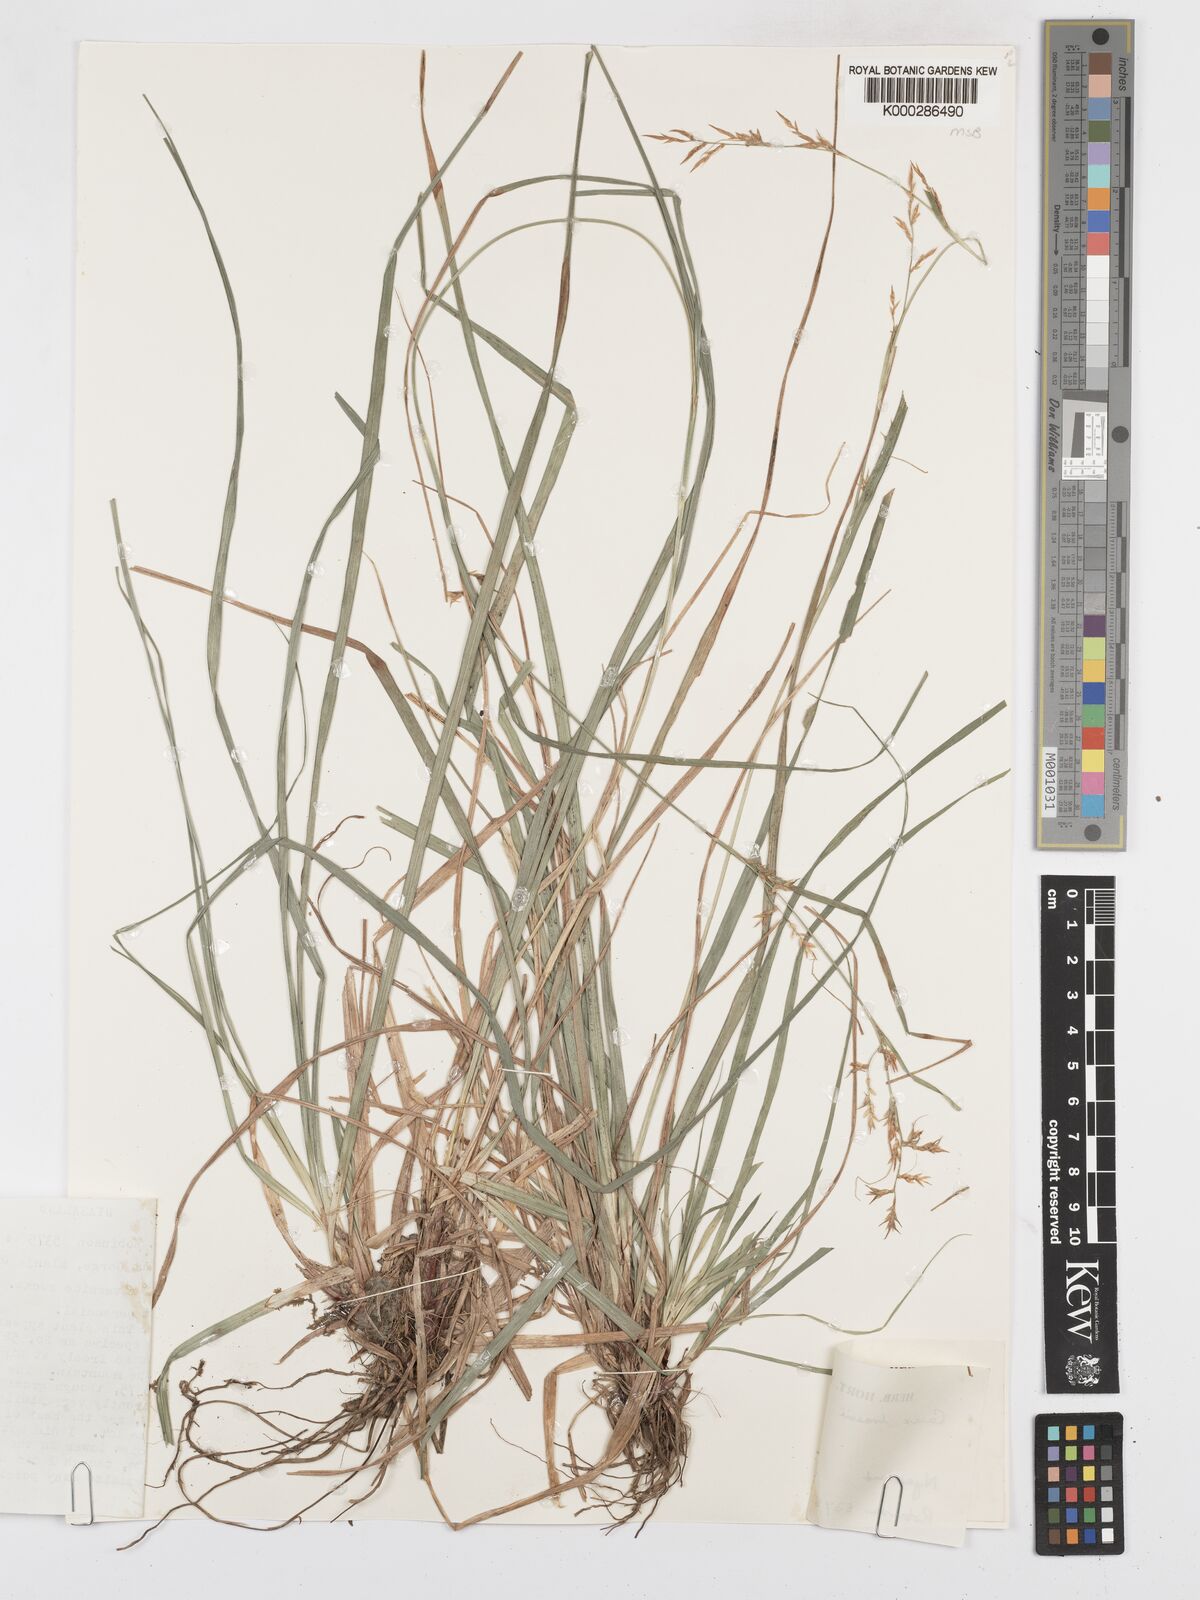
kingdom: Plantae
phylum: Tracheophyta
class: Liliopsida
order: Poales
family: Cyperaceae
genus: Carex
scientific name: Carex chlorosaccus
